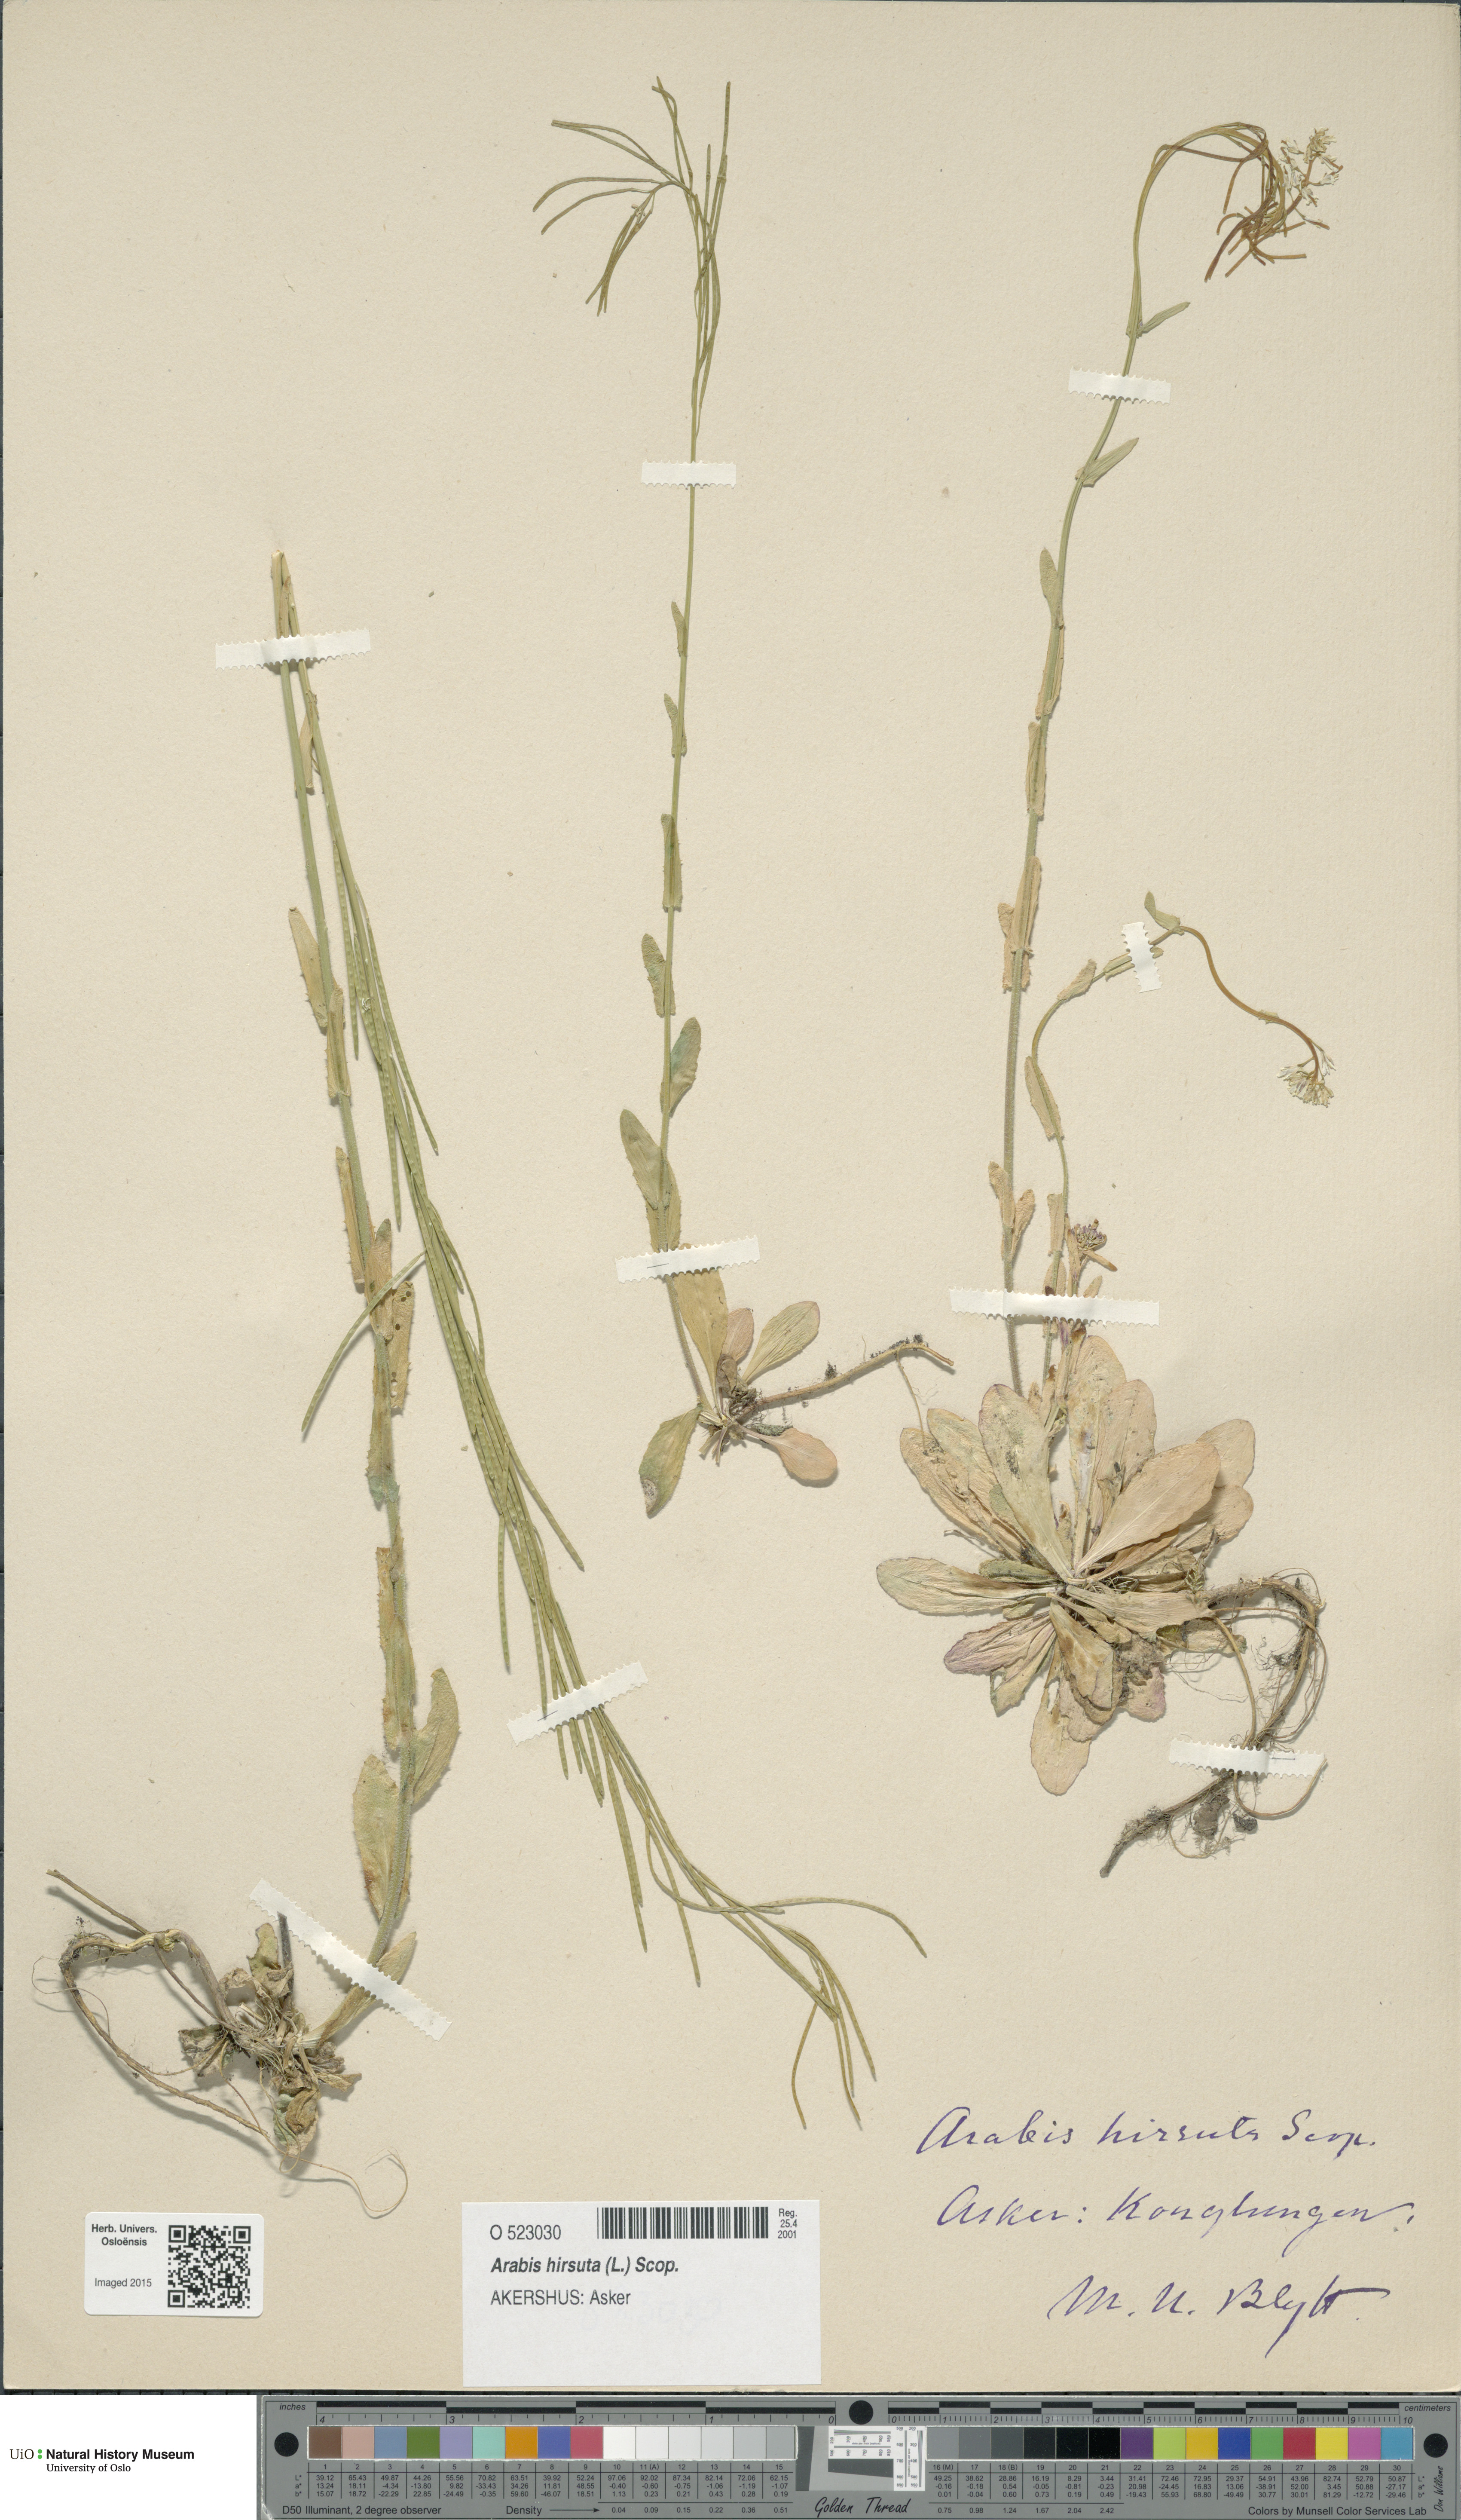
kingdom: Plantae
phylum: Tracheophyta
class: Magnoliopsida
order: Brassicales
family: Brassicaceae
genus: Arabis
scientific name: Arabis hirsuta
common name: Hairy rock-cress
